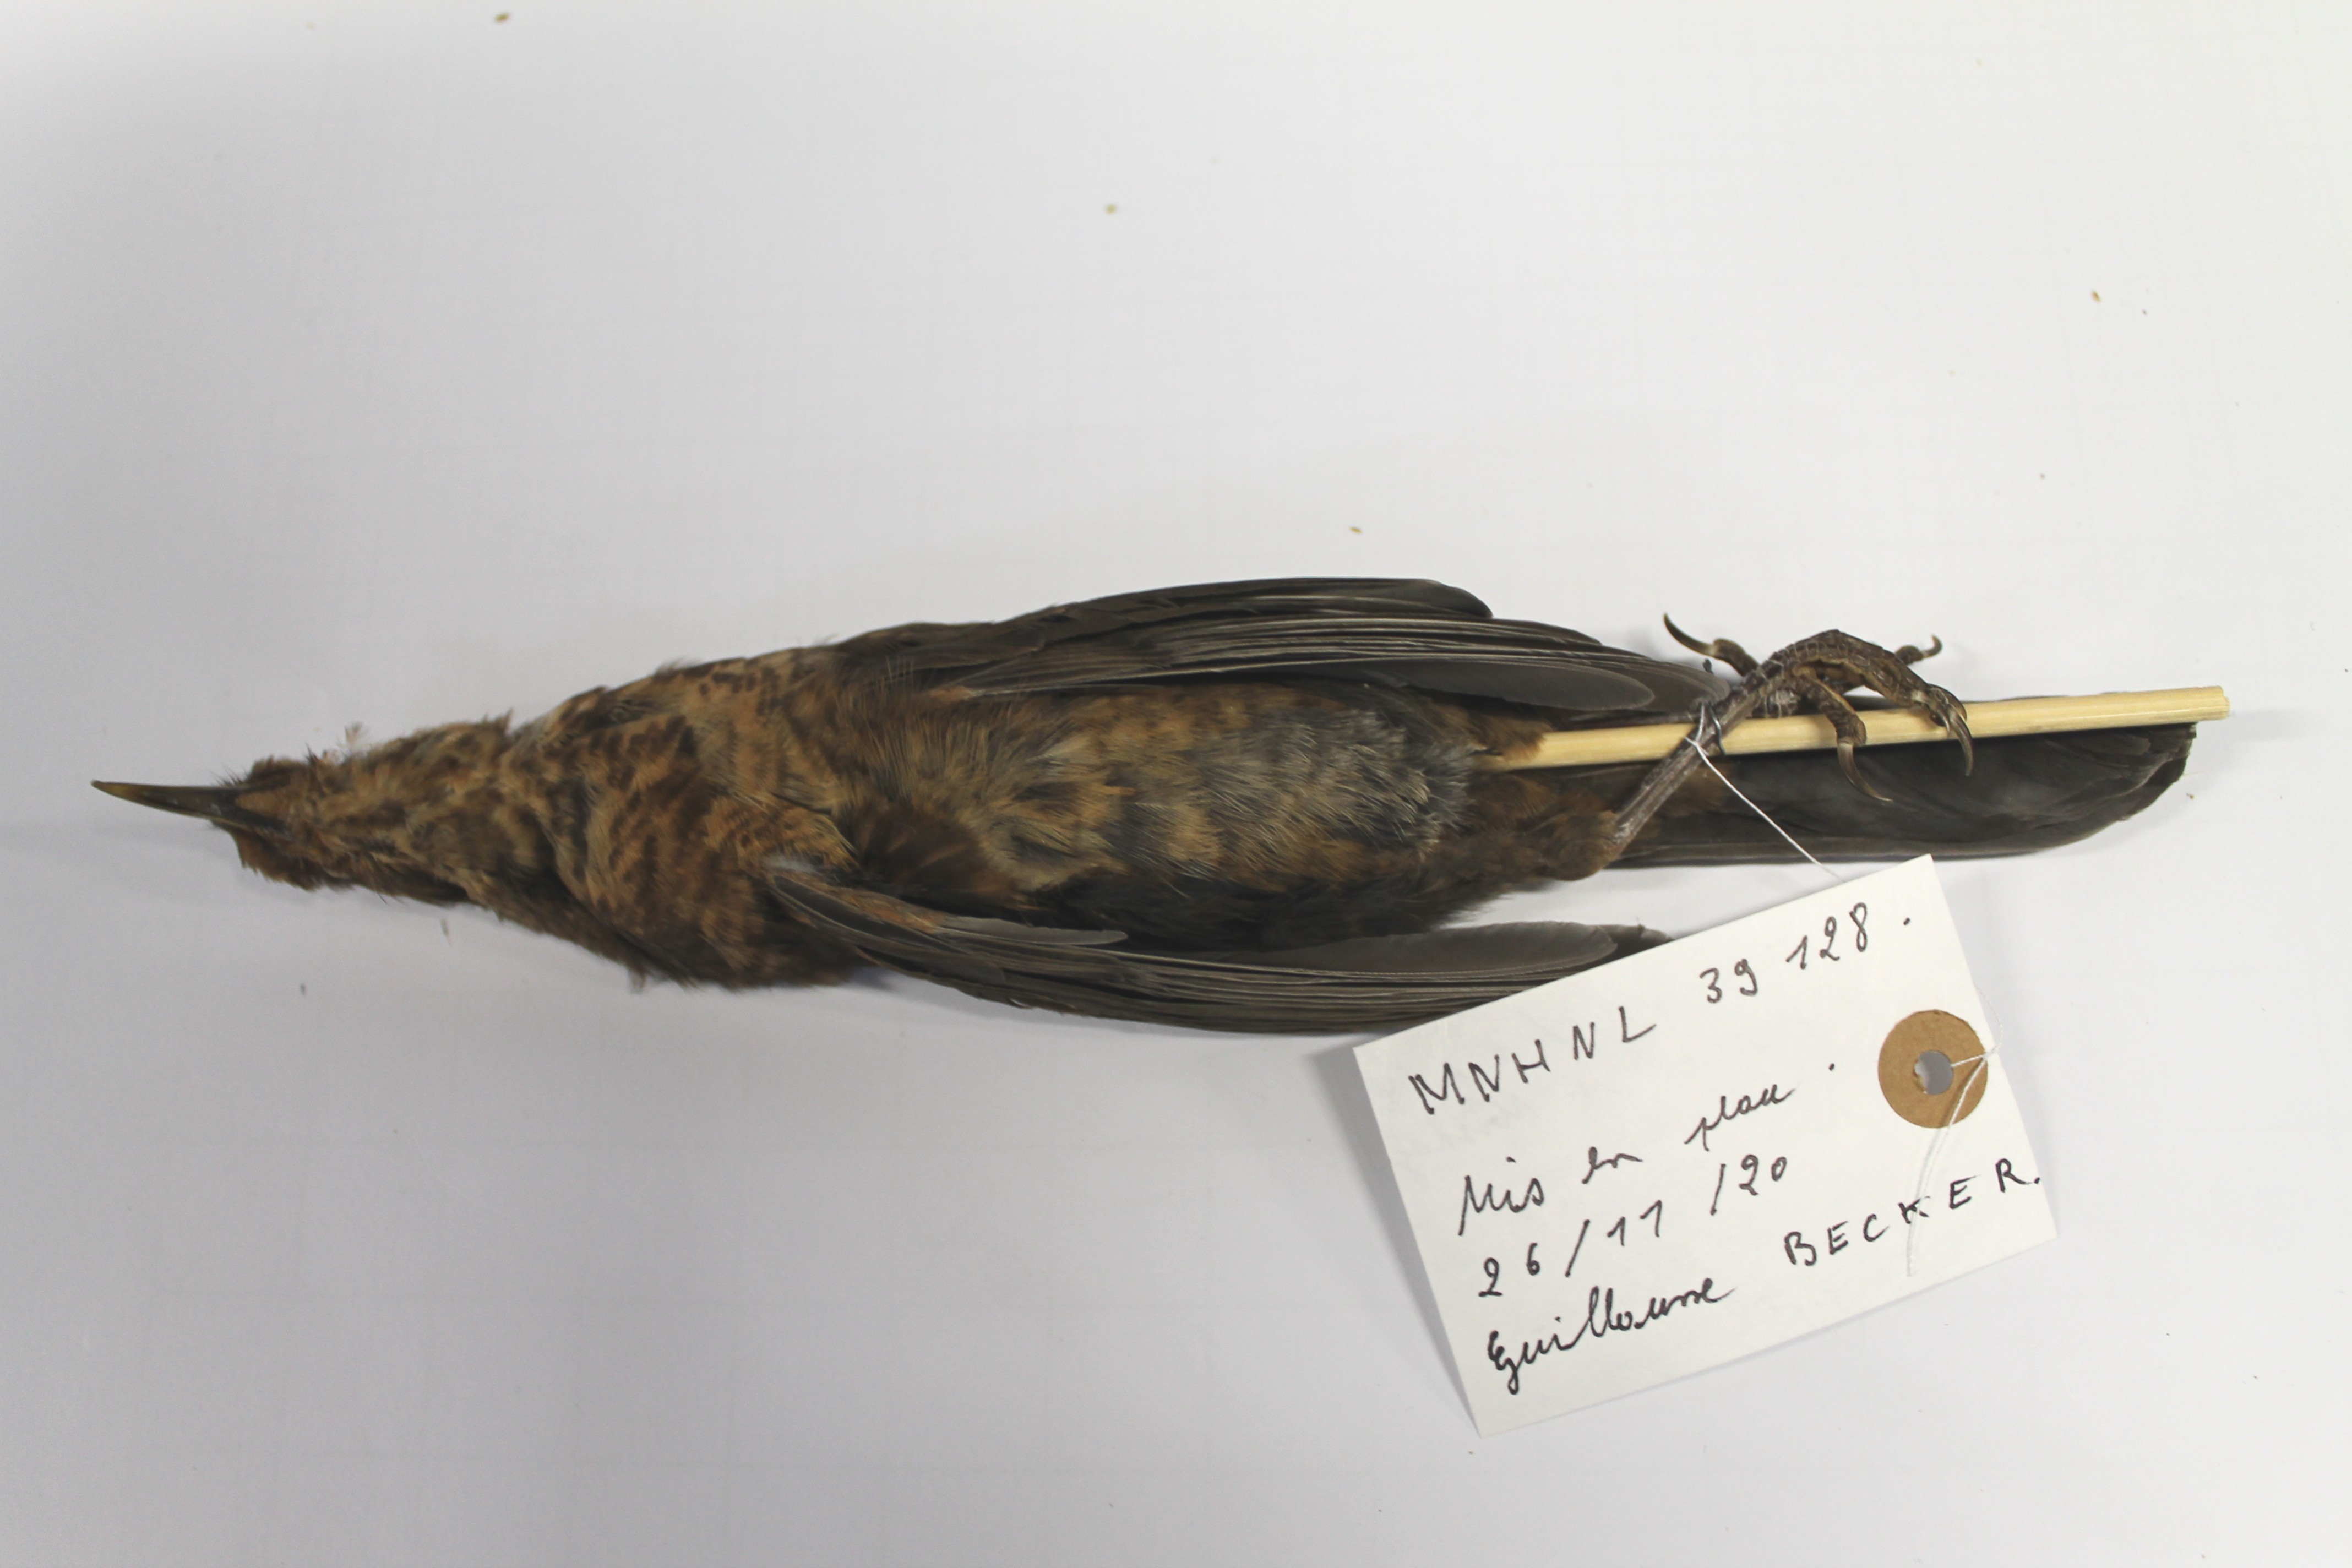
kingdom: Animalia
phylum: Chordata
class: Aves
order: Passeriformes
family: Turdidae
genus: Turdus
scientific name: Turdus merula
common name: Common blackbird
